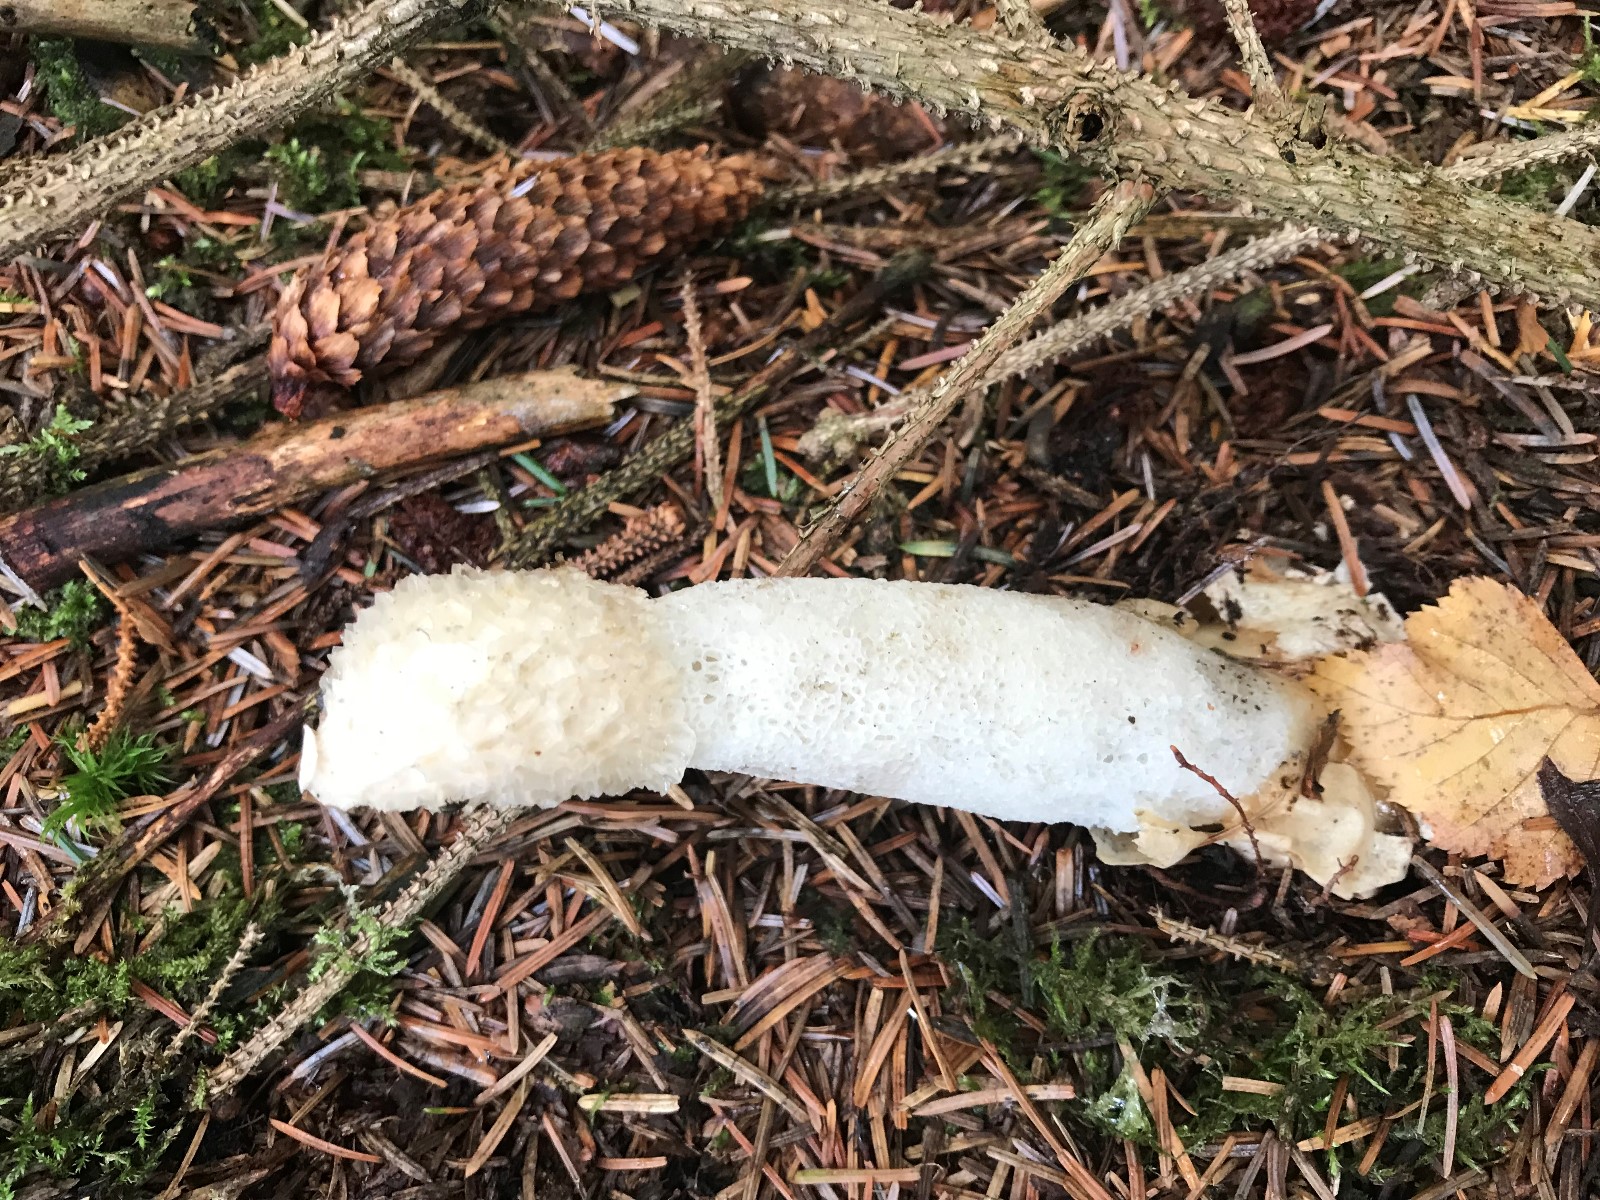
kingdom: Fungi
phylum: Basidiomycota
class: Agaricomycetes
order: Phallales
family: Phallaceae
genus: Phallus
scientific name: Phallus impudicus
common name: almindelig stinksvamp
